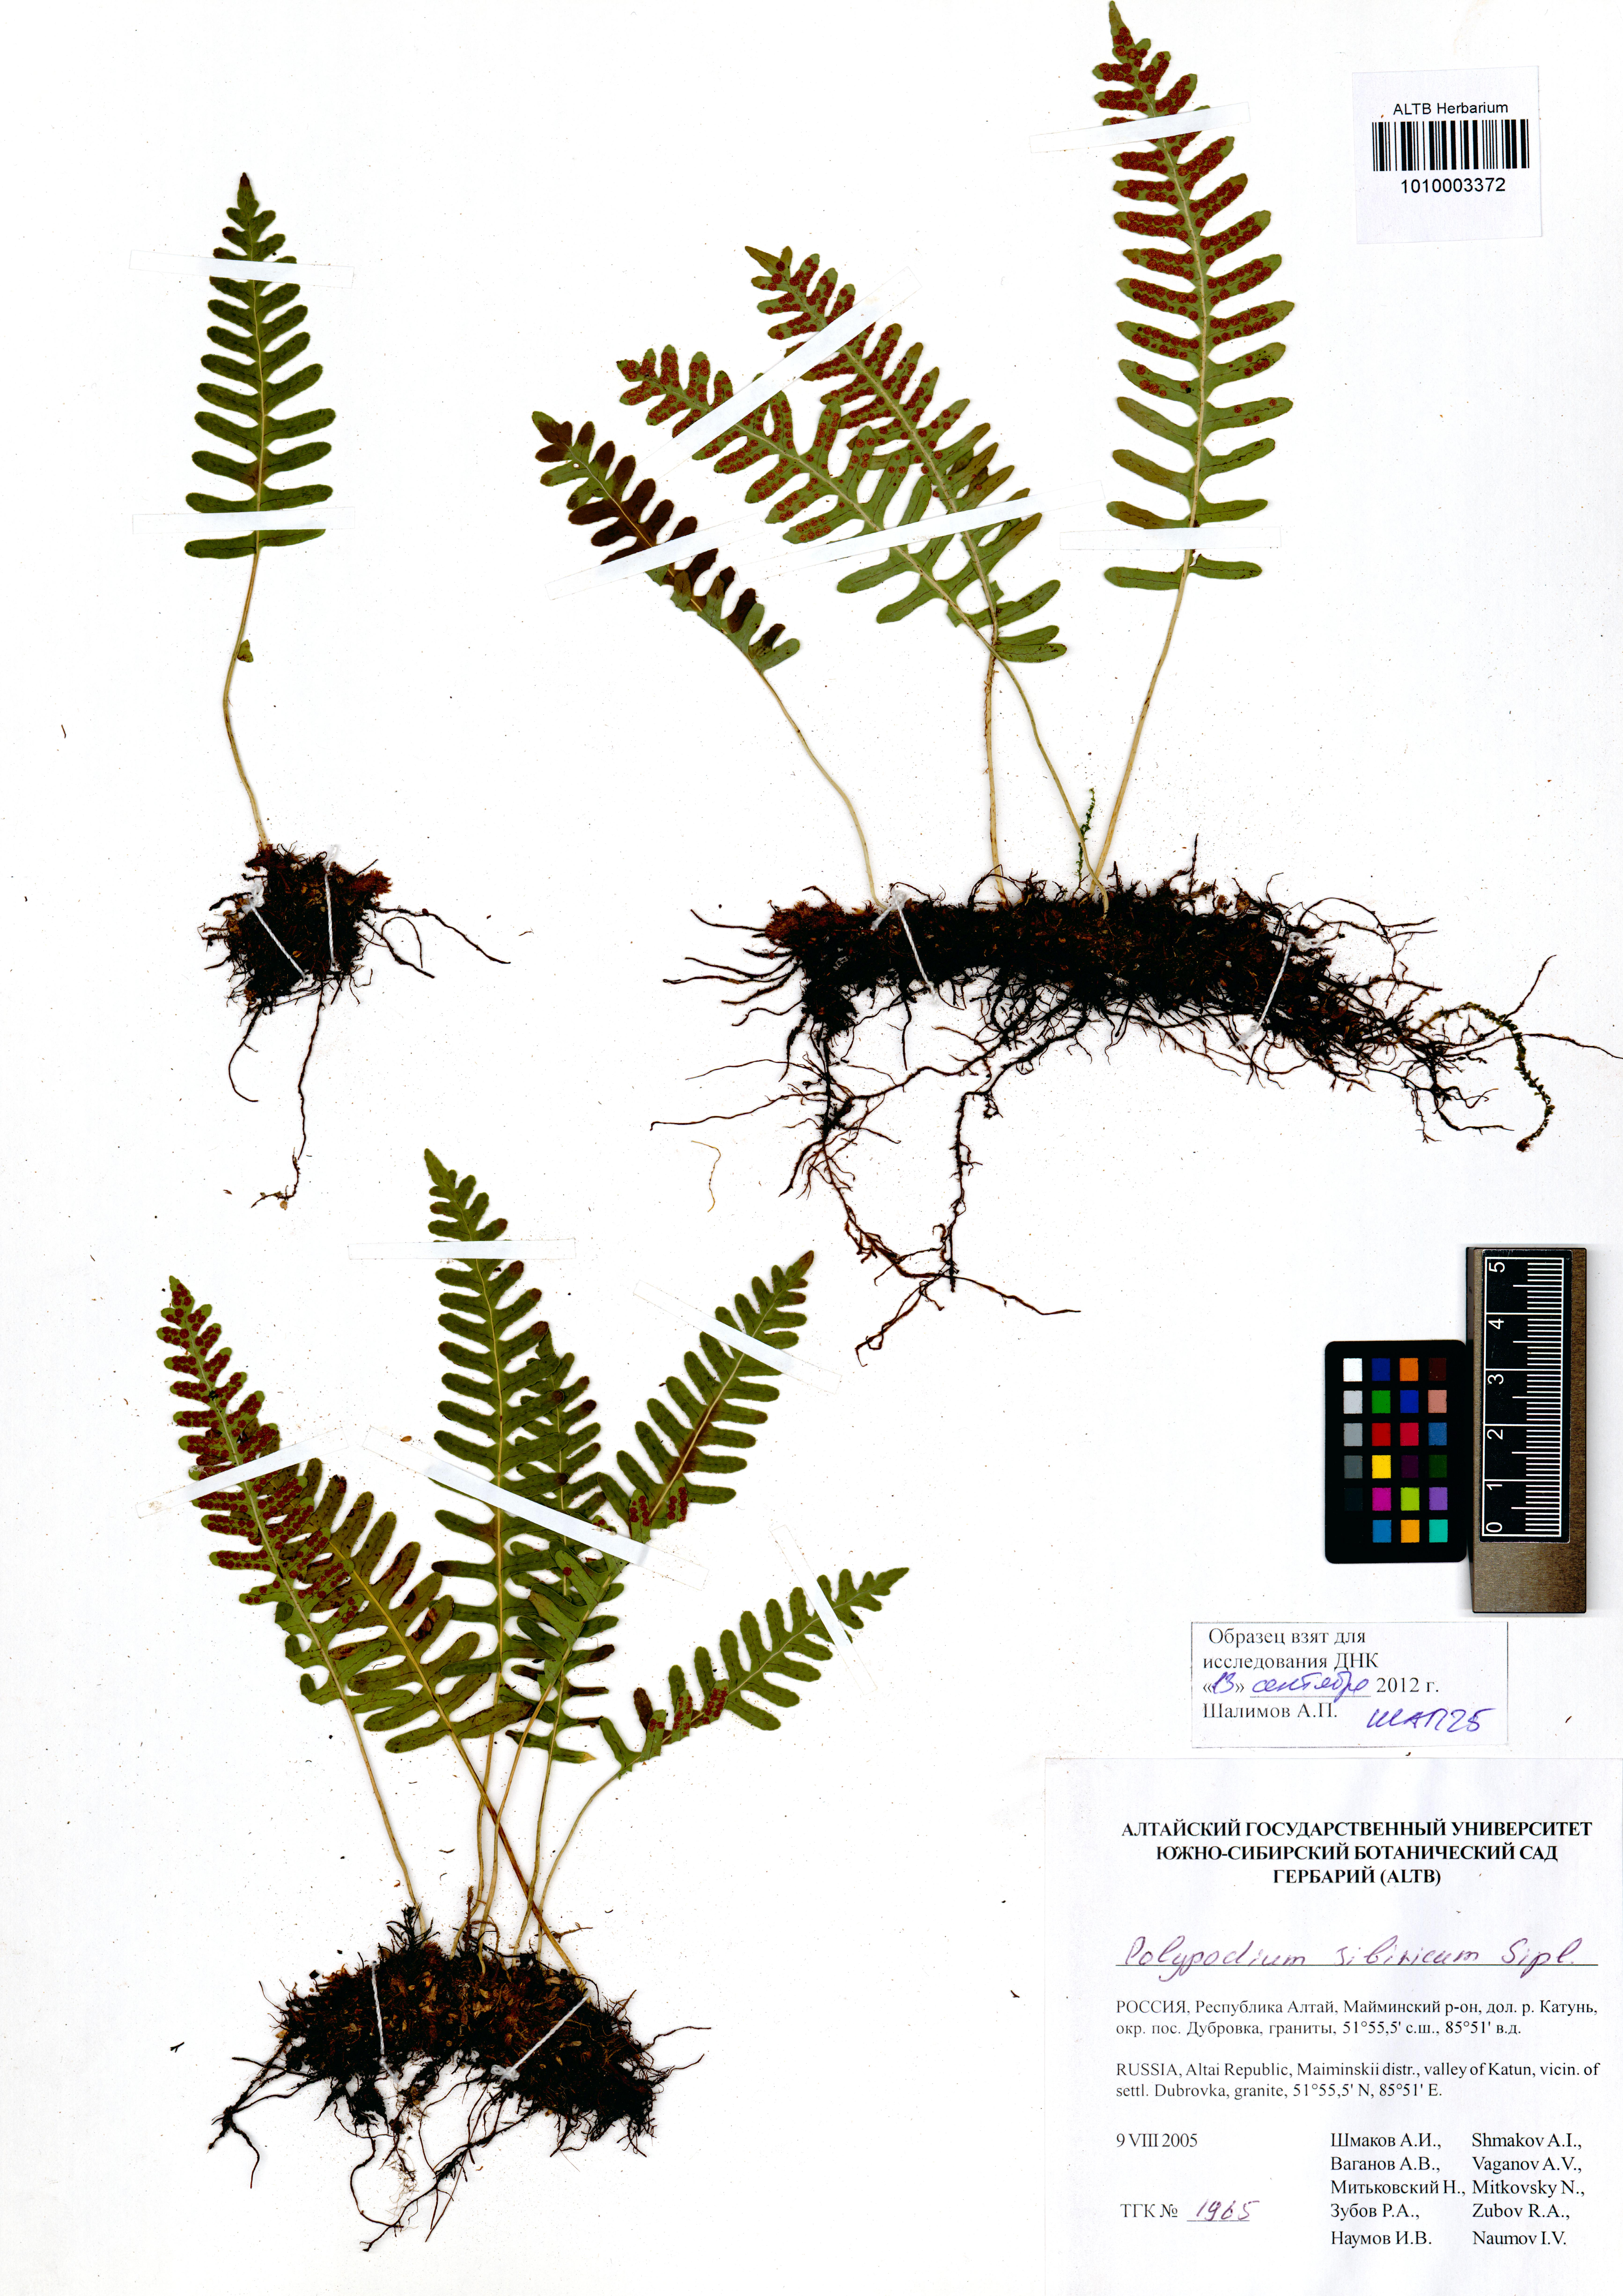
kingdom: Plantae
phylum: Tracheophyta
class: Polypodiopsida
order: Polypodiales
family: Polypodiaceae
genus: Polypodium
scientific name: Polypodium sibiricum
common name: Siberian polypody
